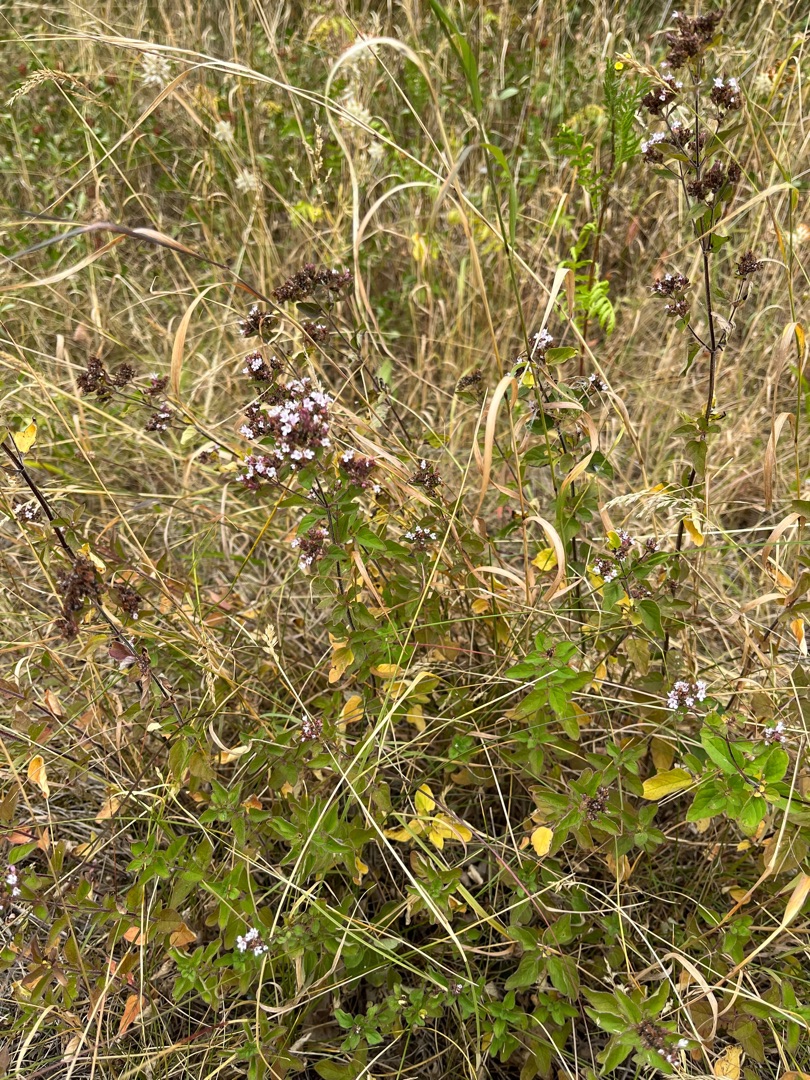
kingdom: Plantae
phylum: Tracheophyta
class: Magnoliopsida
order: Lamiales
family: Lamiaceae
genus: Origanum
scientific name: Origanum vulgare
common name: Merian
